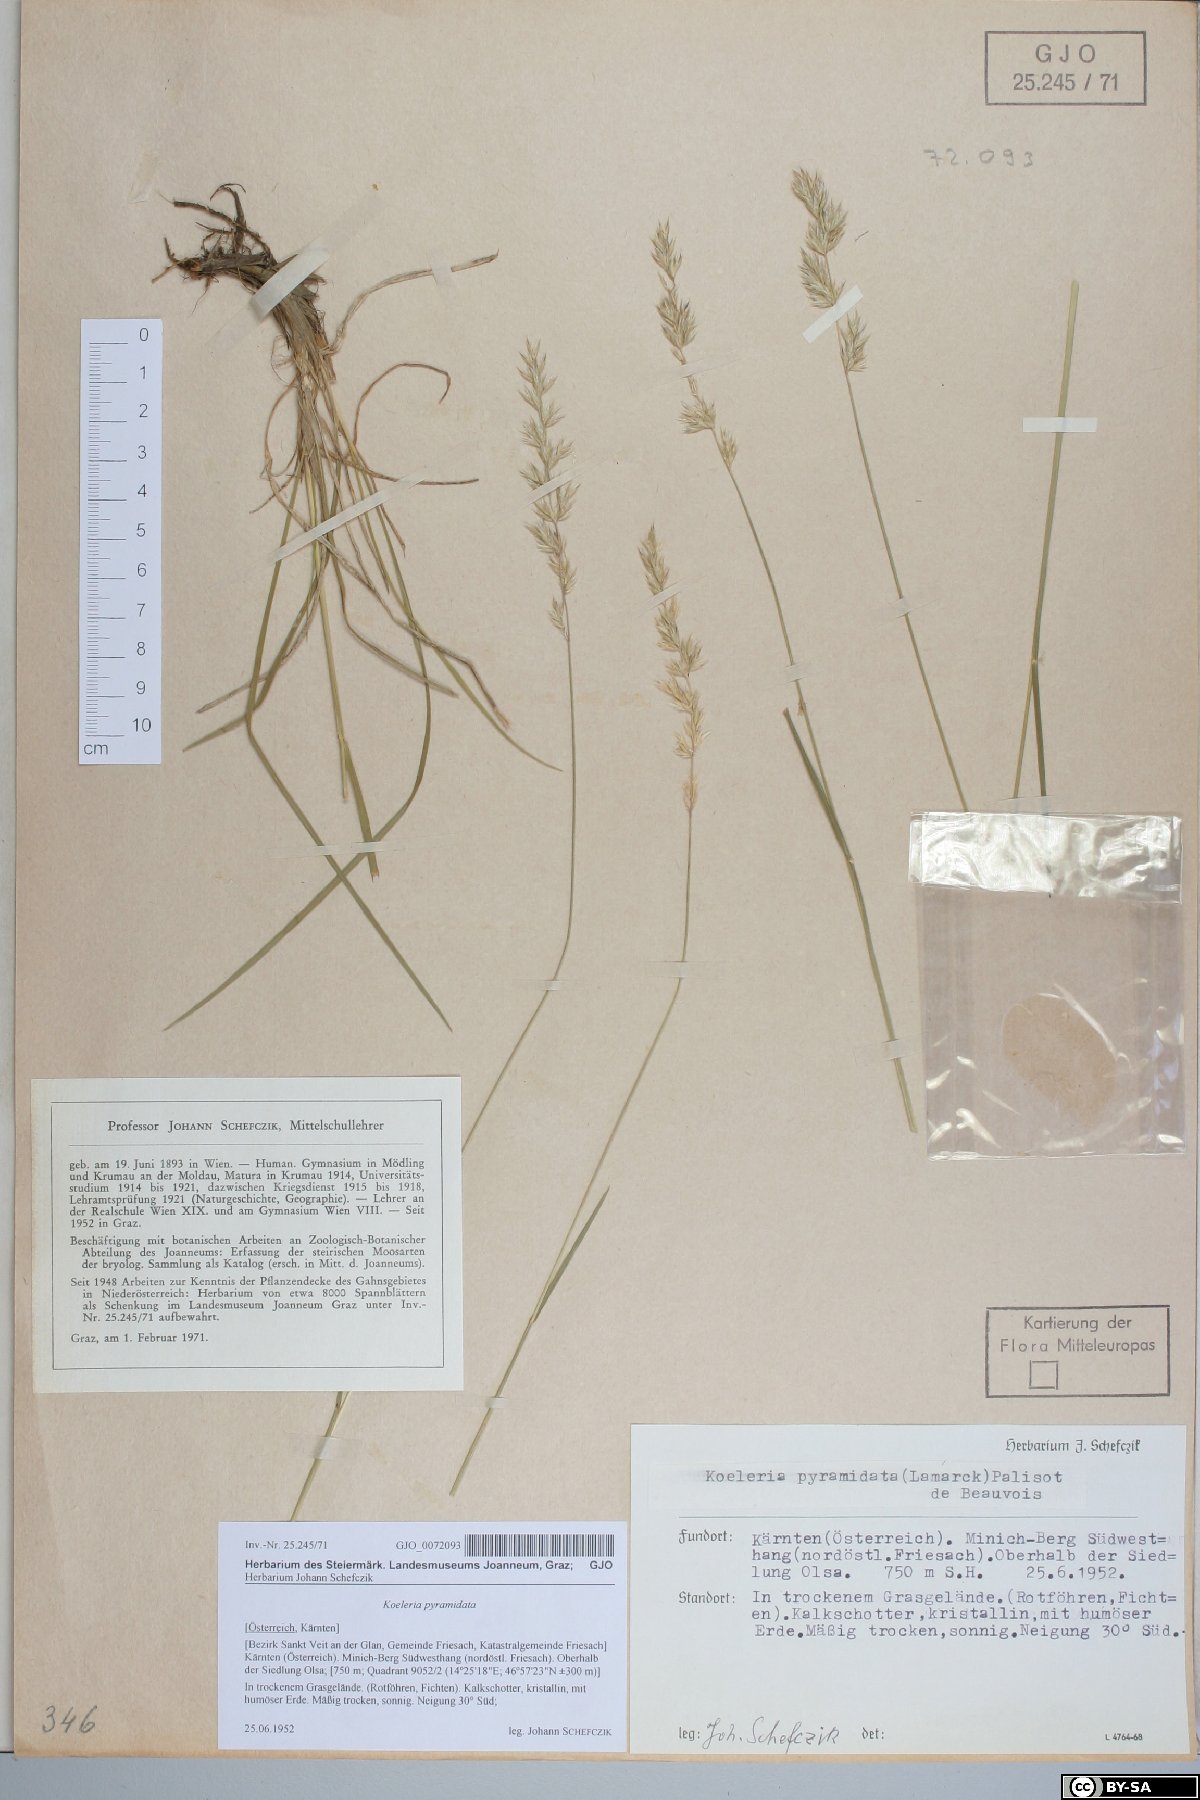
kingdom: Plantae
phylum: Tracheophyta
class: Liliopsida
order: Poales
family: Poaceae
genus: Koeleria
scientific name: Koeleria pyramidata
